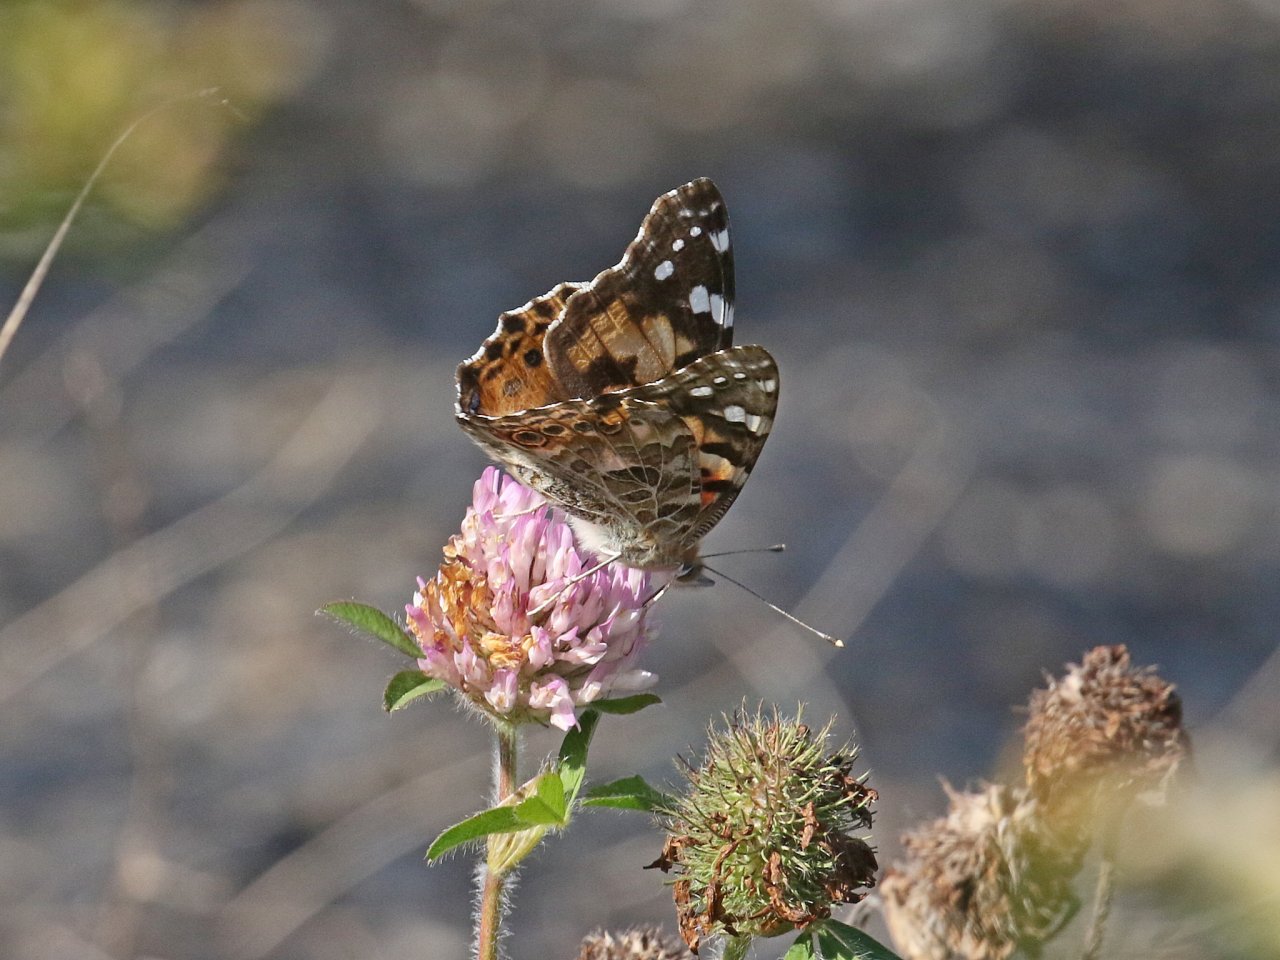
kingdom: Animalia
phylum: Arthropoda
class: Insecta
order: Lepidoptera
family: Nymphalidae
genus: Vanessa
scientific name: Vanessa cardui
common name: Painted Lady
